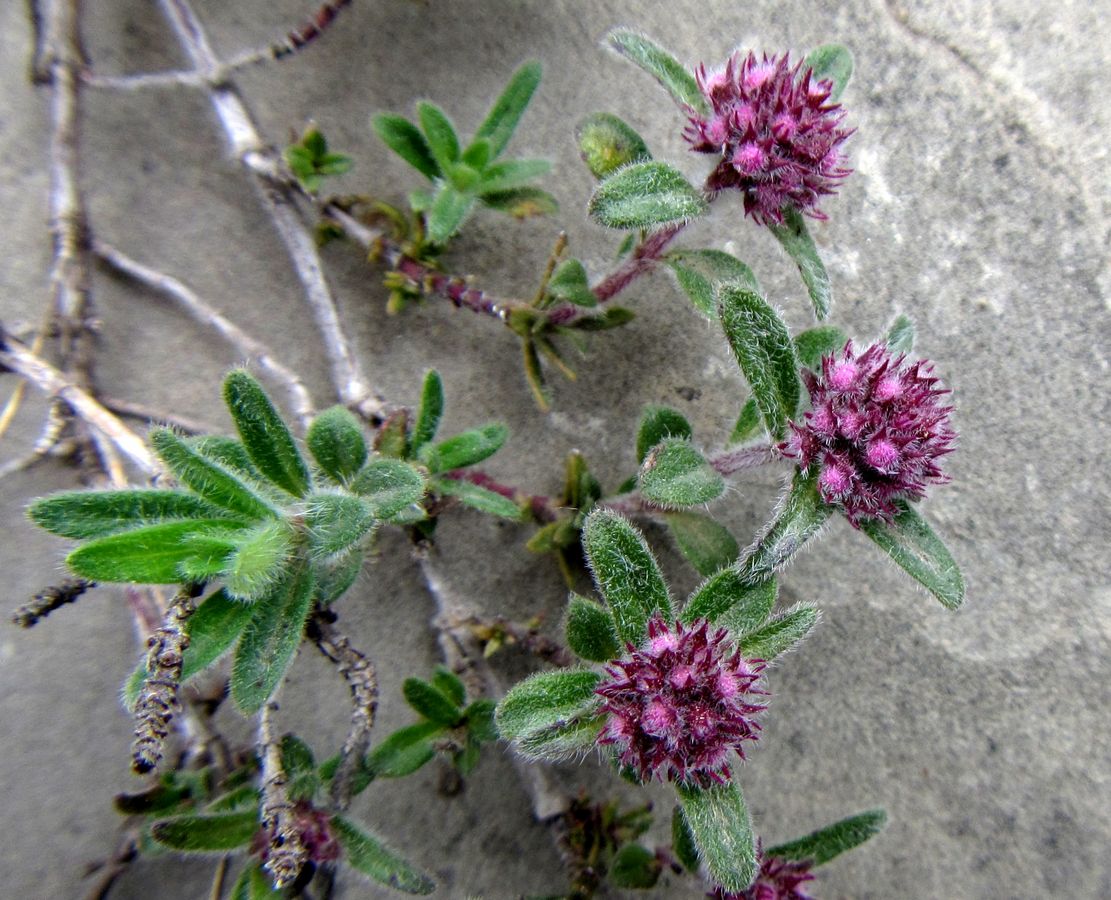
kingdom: Plantae
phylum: Tracheophyta
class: Magnoliopsida
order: Lamiales
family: Lamiaceae
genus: Thymus
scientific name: Thymus markhotensis
